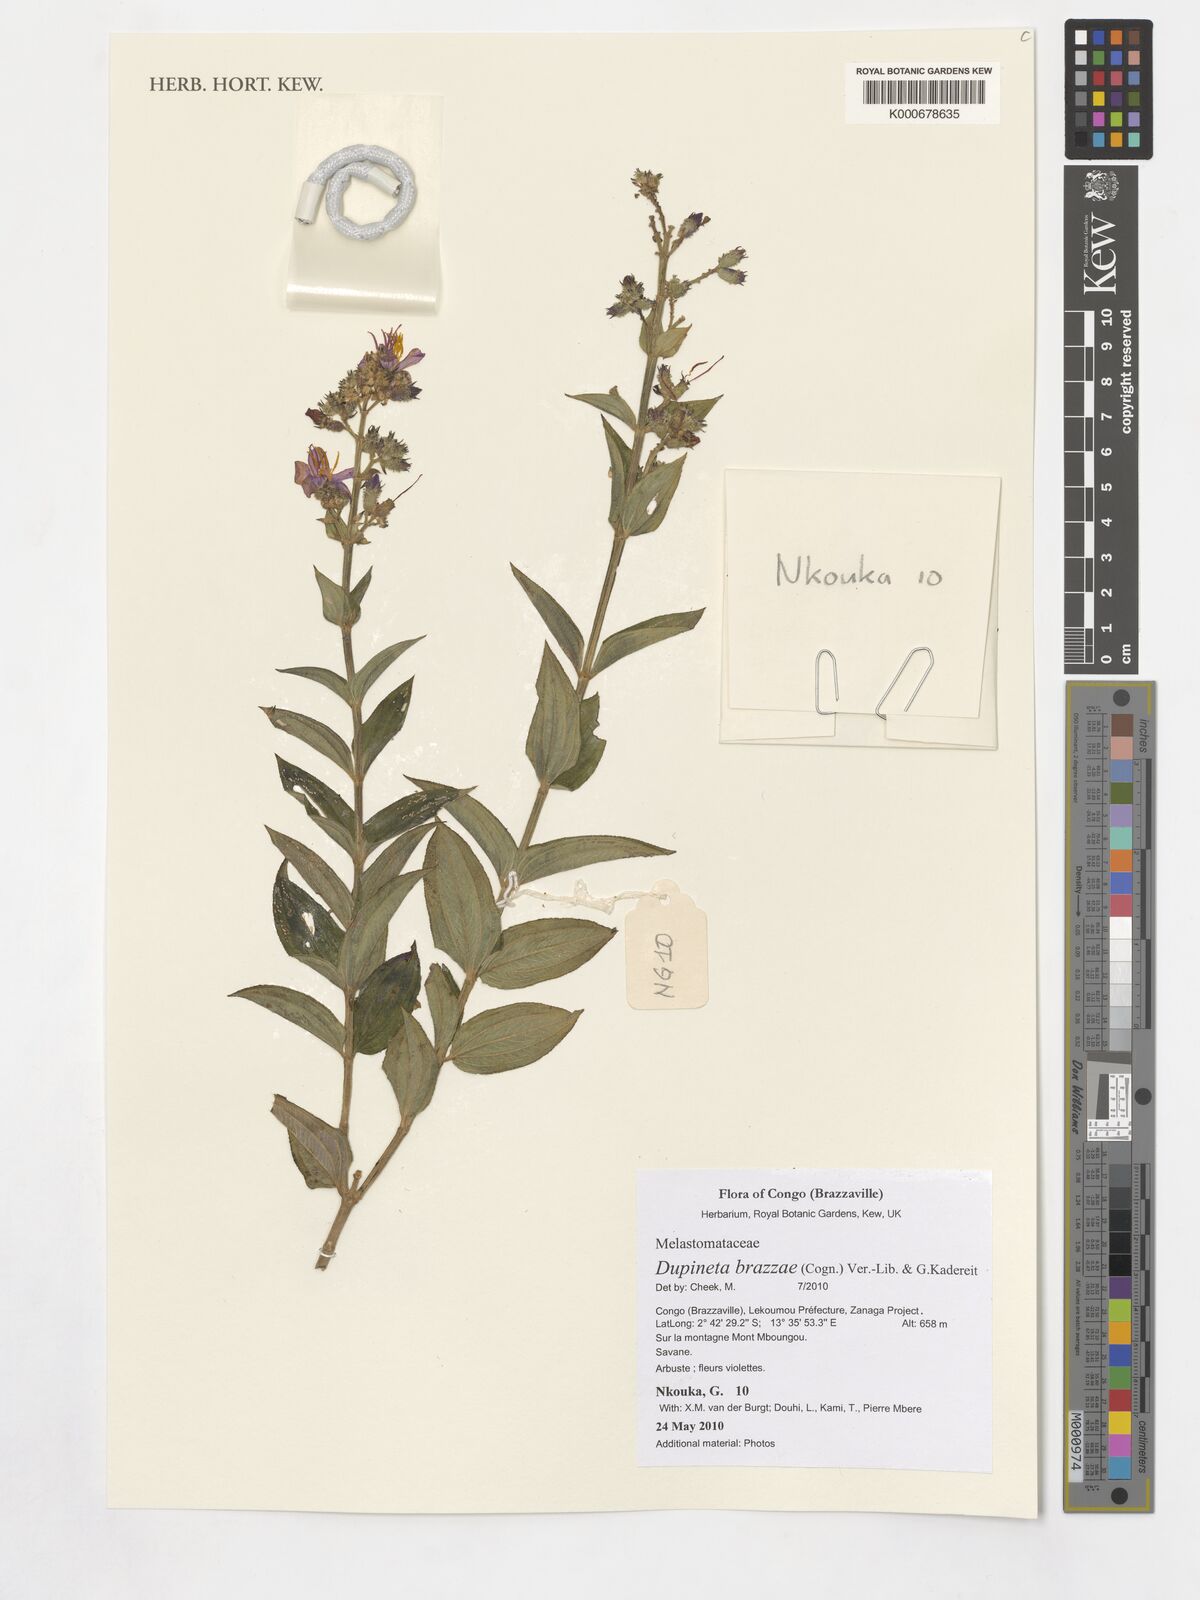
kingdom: Plantae
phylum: Tracheophyta
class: Magnoliopsida
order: Myrtales
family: Melastomataceae
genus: Dupineta
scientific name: Dupineta brazzae
